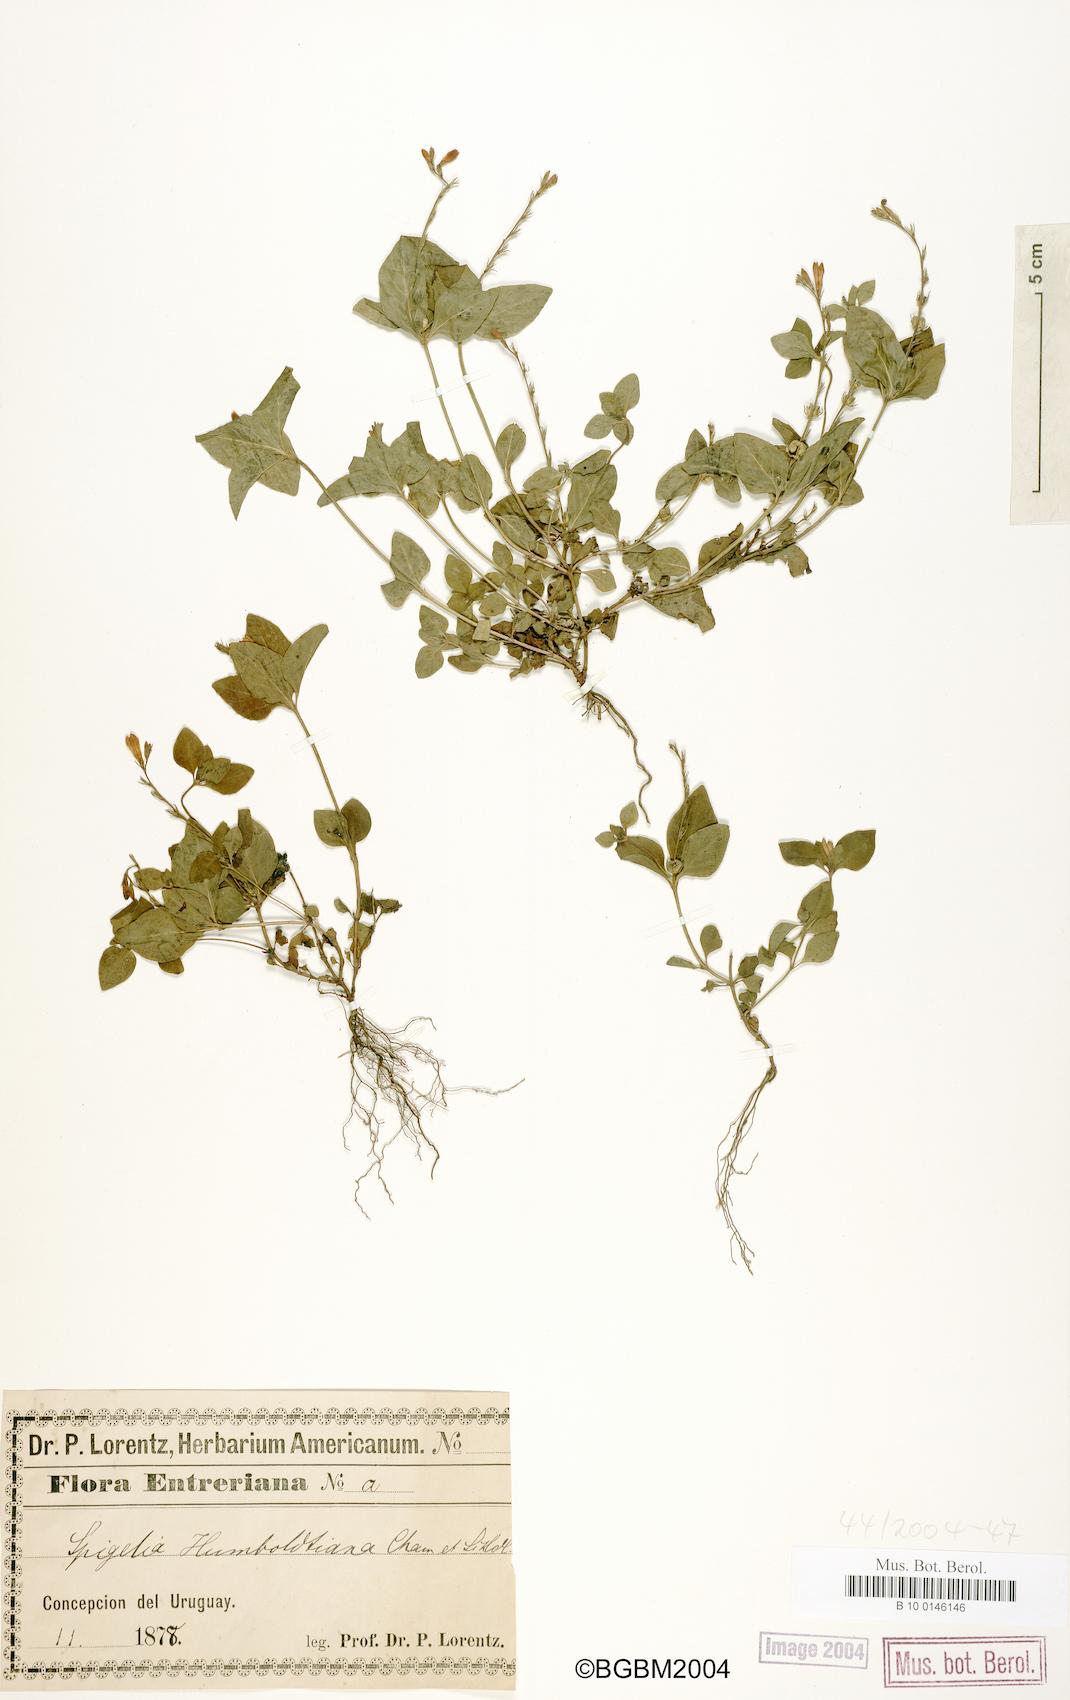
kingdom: Plantae
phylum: Tracheophyta
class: Magnoliopsida
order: Gentianales
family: Loganiaceae
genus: Spigelia
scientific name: Spigelia humboldtiana
